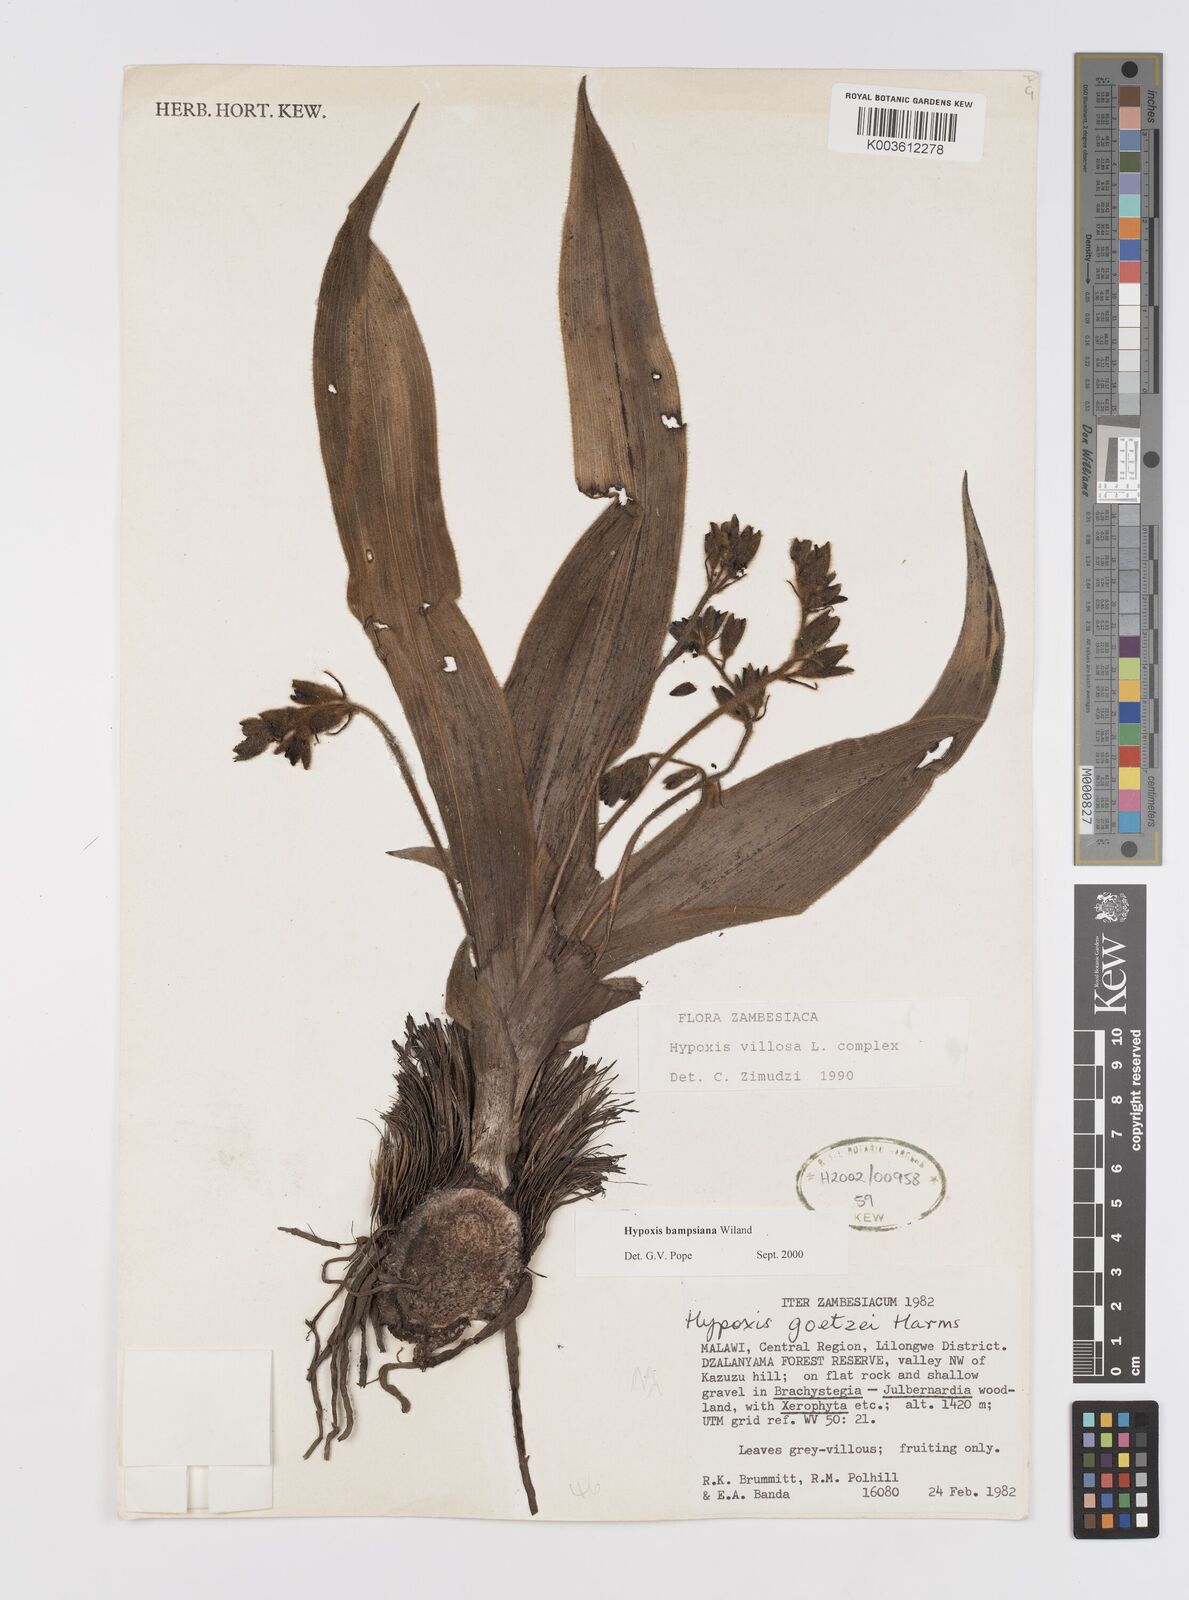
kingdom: Plantae
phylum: Tracheophyta
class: Liliopsida
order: Asparagales
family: Hypoxidaceae
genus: Hypoxis
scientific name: Hypoxis bampsiana
